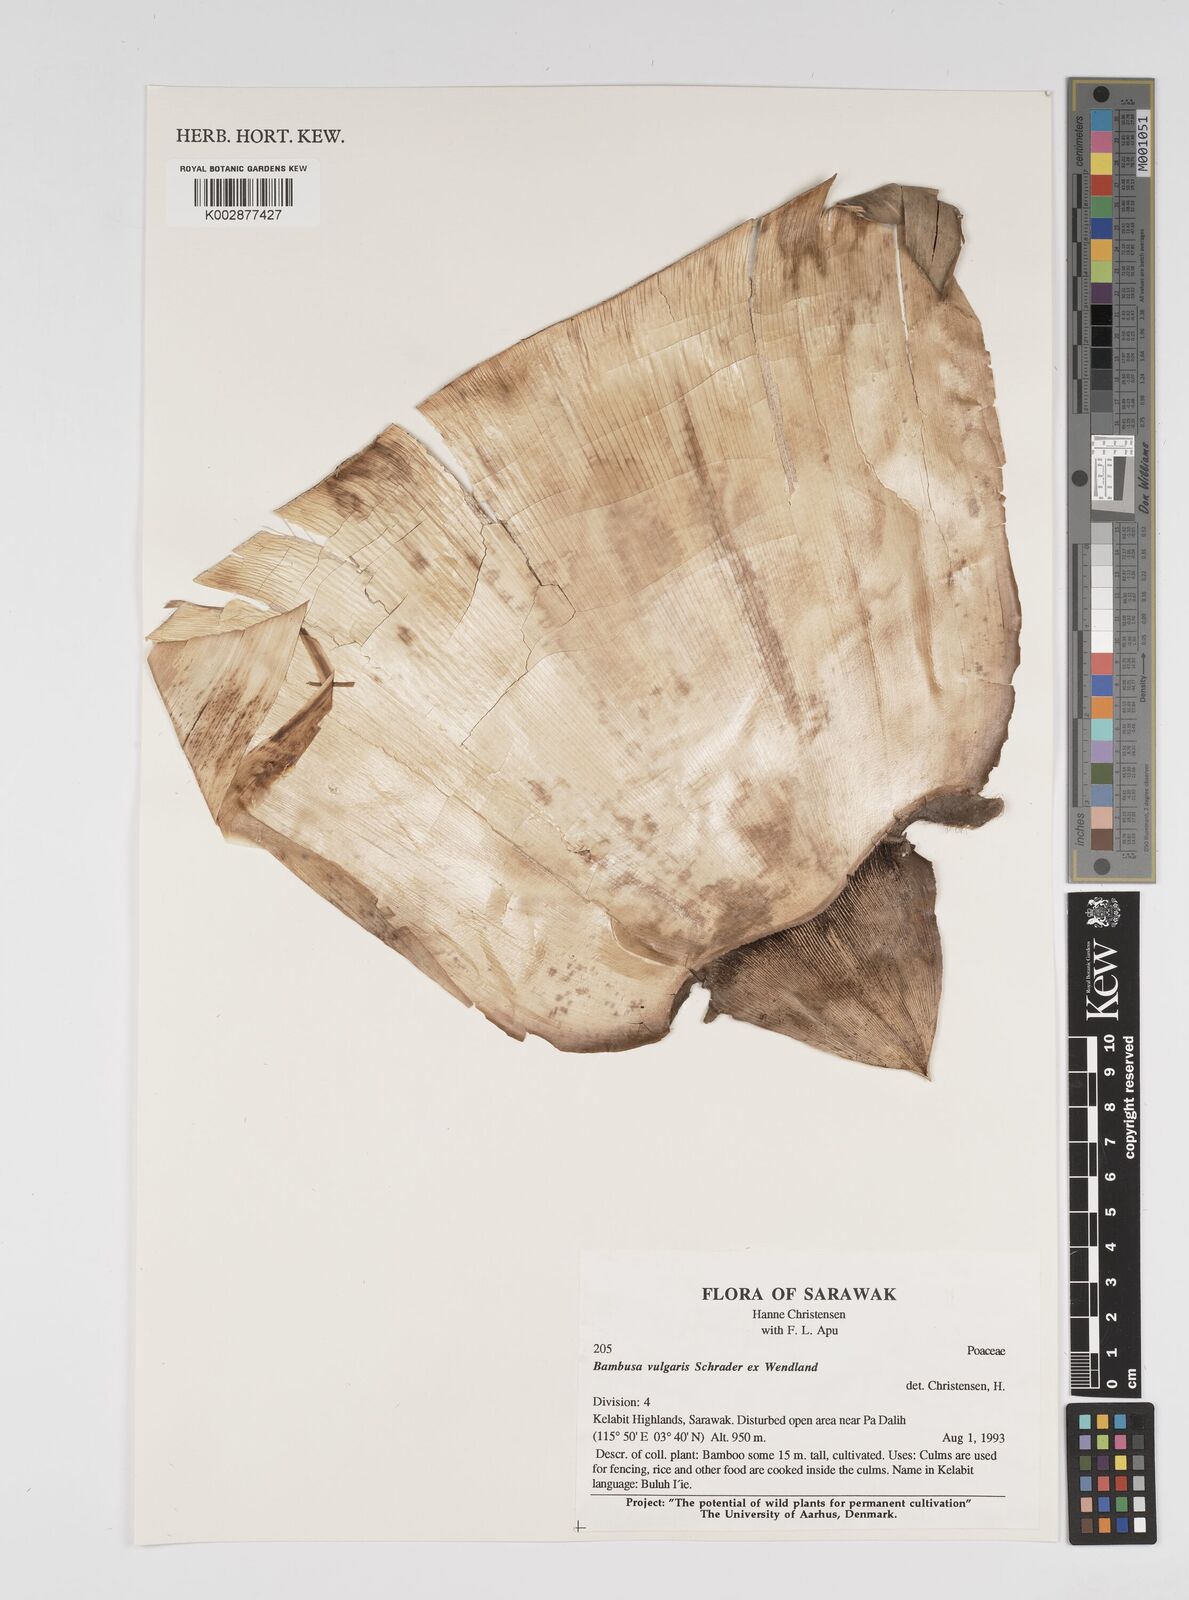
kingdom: Plantae
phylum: Tracheophyta
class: Liliopsida
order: Poales
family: Poaceae
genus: Bambusa
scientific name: Bambusa vulgaris
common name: Common bamboo
